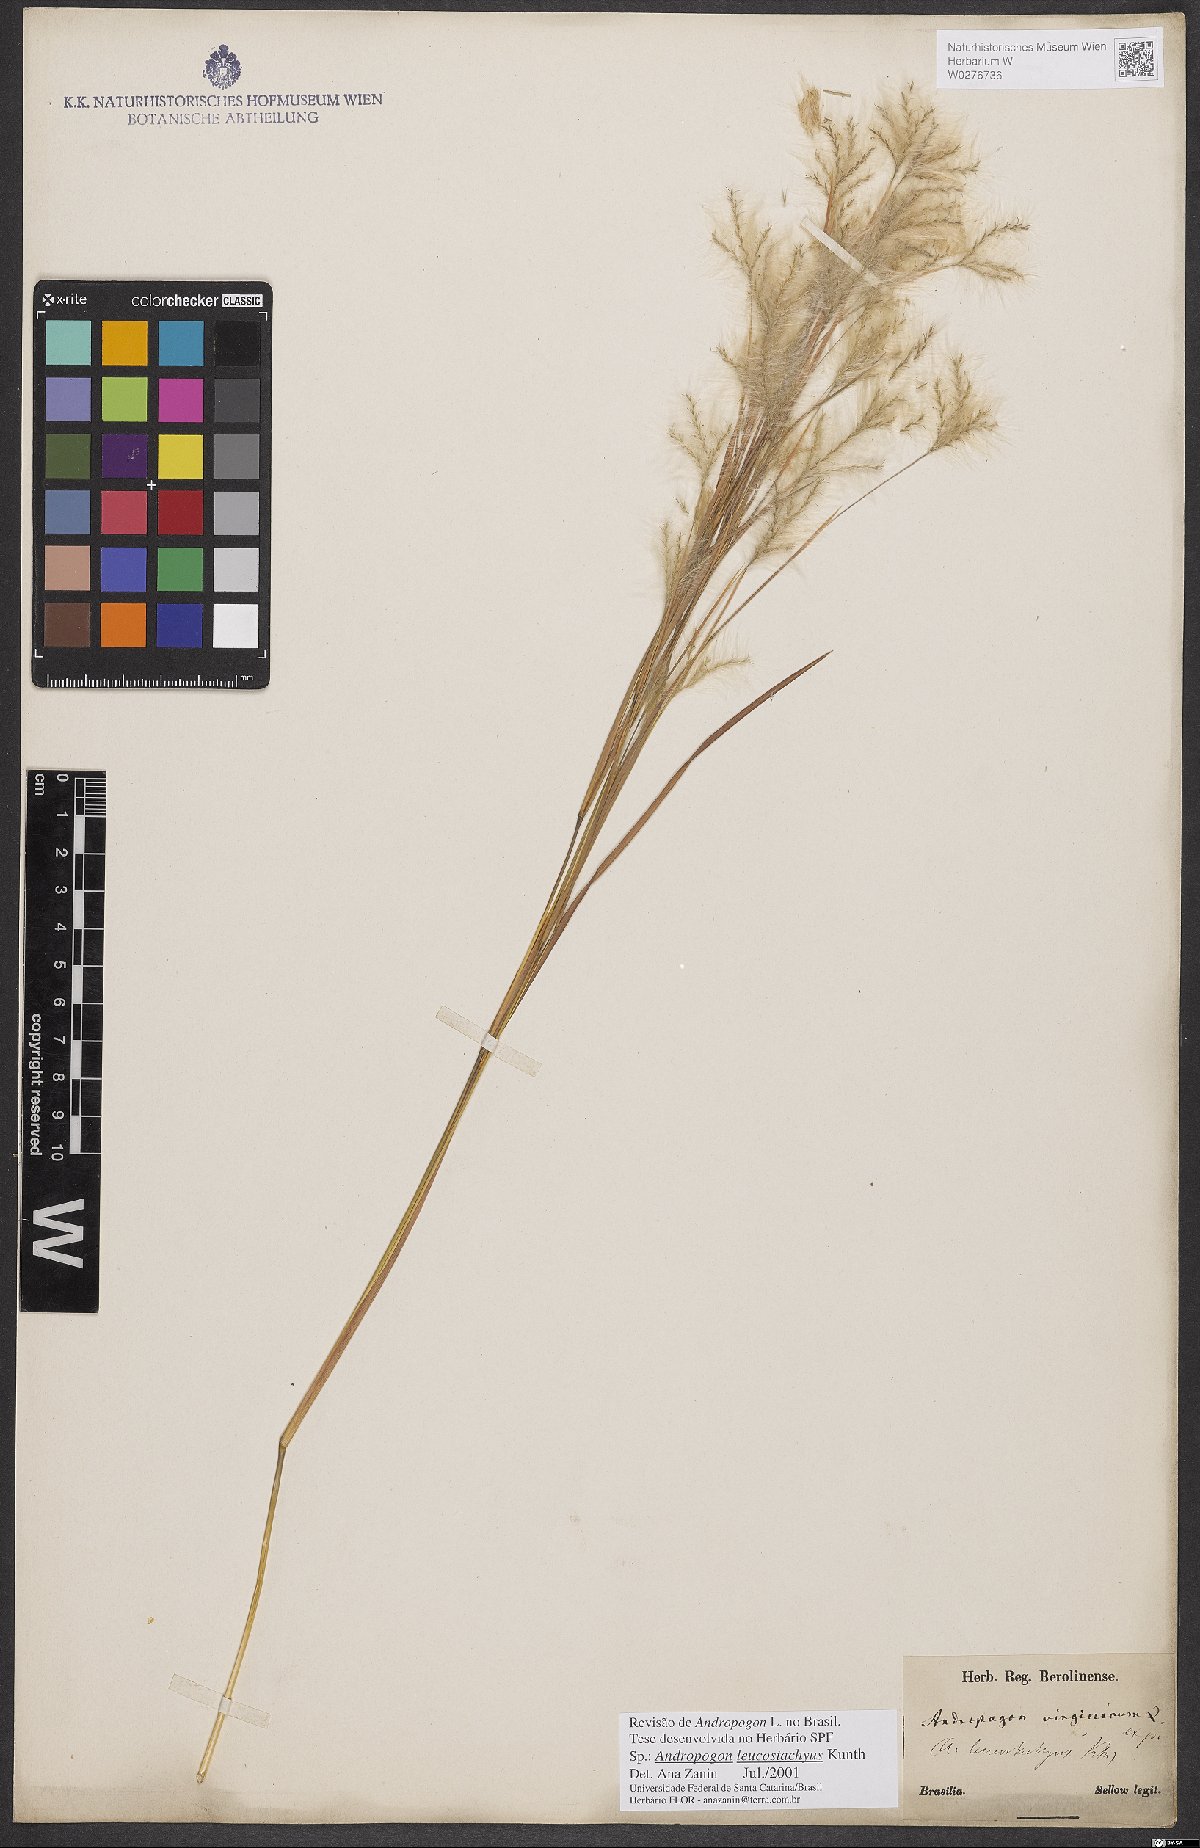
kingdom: Plantae
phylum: Tracheophyta
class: Liliopsida
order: Poales
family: Poaceae
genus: Andropogon
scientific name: Andropogon leucostachyus
